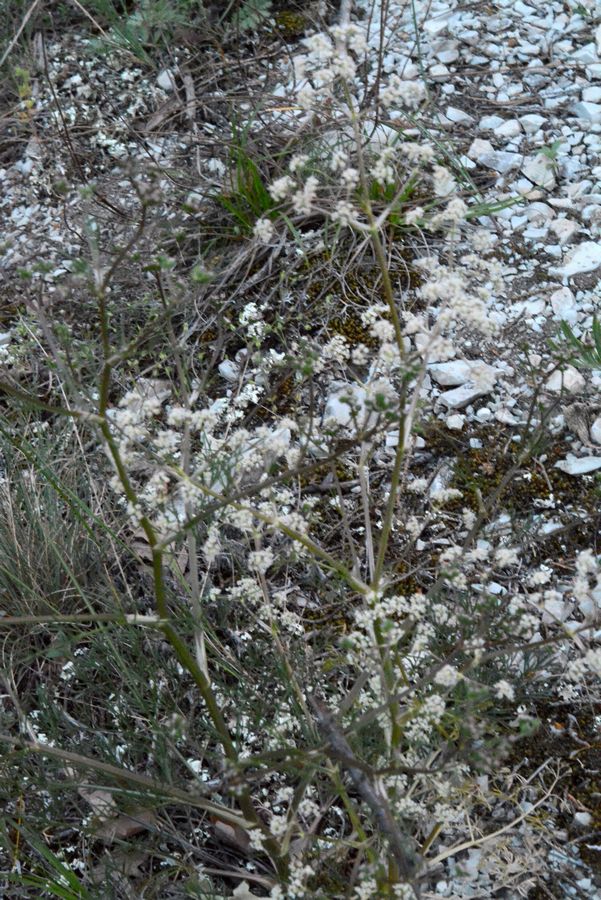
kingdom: Plantae
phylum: Tracheophyta
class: Magnoliopsida
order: Apiales
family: Apiaceae
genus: Trinia
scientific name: Trinia hispida
